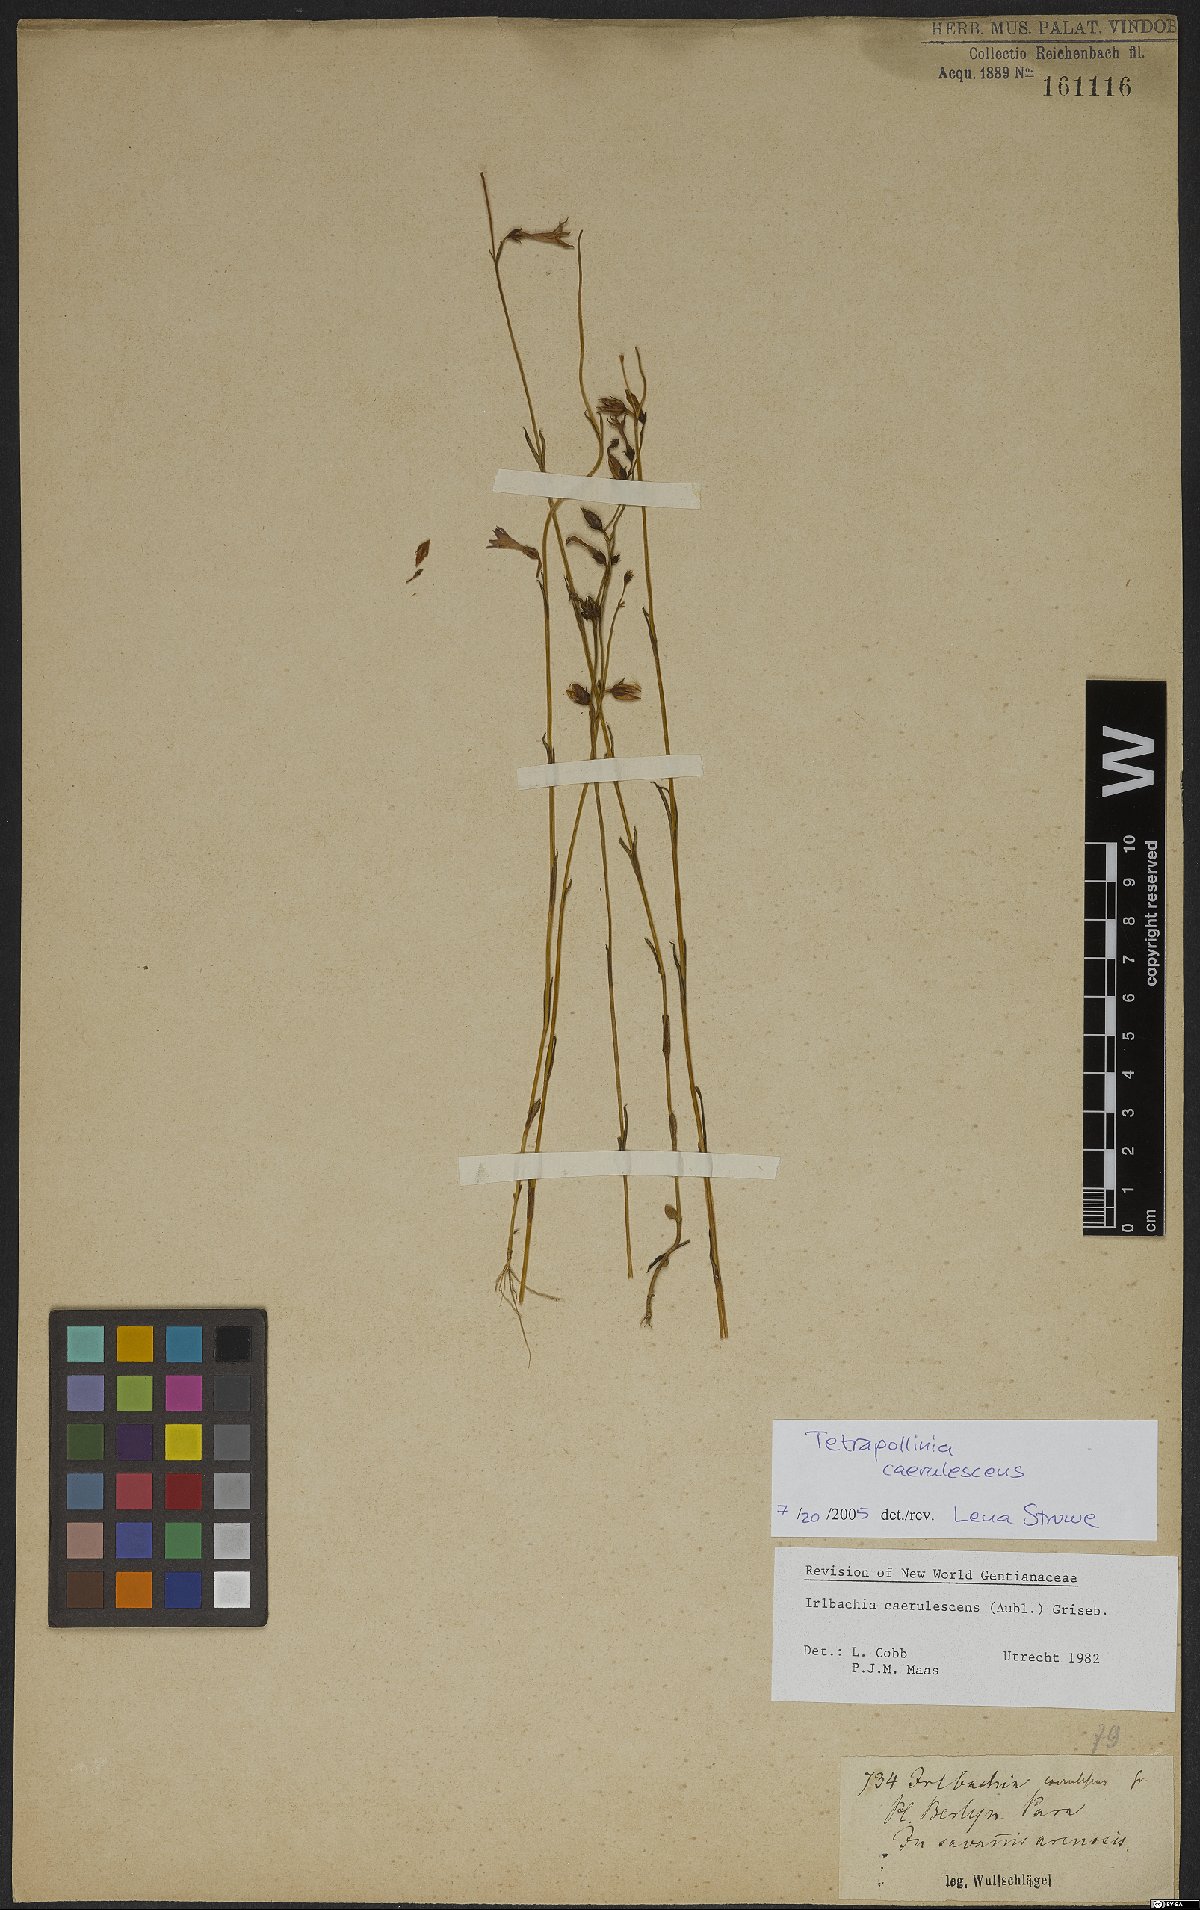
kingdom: Plantae
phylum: Tracheophyta
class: Magnoliopsida
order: Gentianales
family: Gentianaceae
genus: Tetrapollinia
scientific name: Tetrapollinia caerulescens
